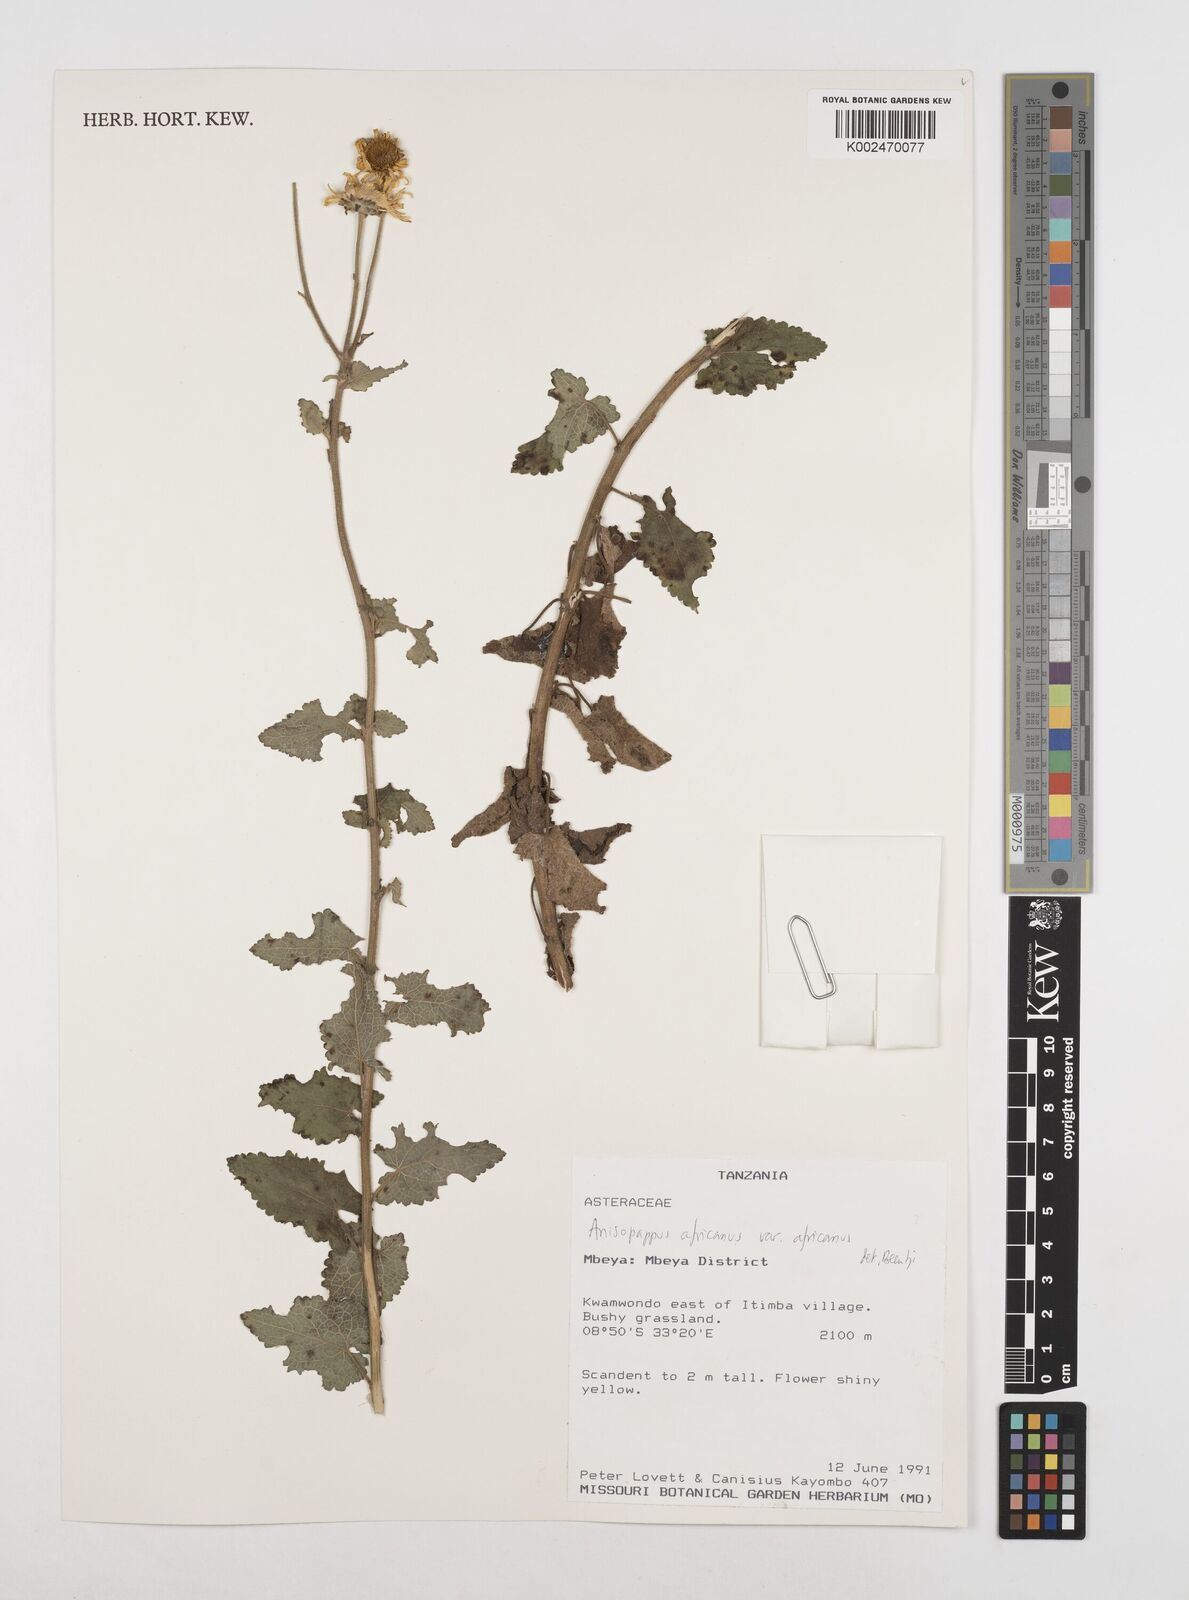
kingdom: Plantae
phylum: Tracheophyta
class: Magnoliopsida
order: Asterales
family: Asteraceae
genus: Anisopappus
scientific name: Anisopappus buchwaldii
